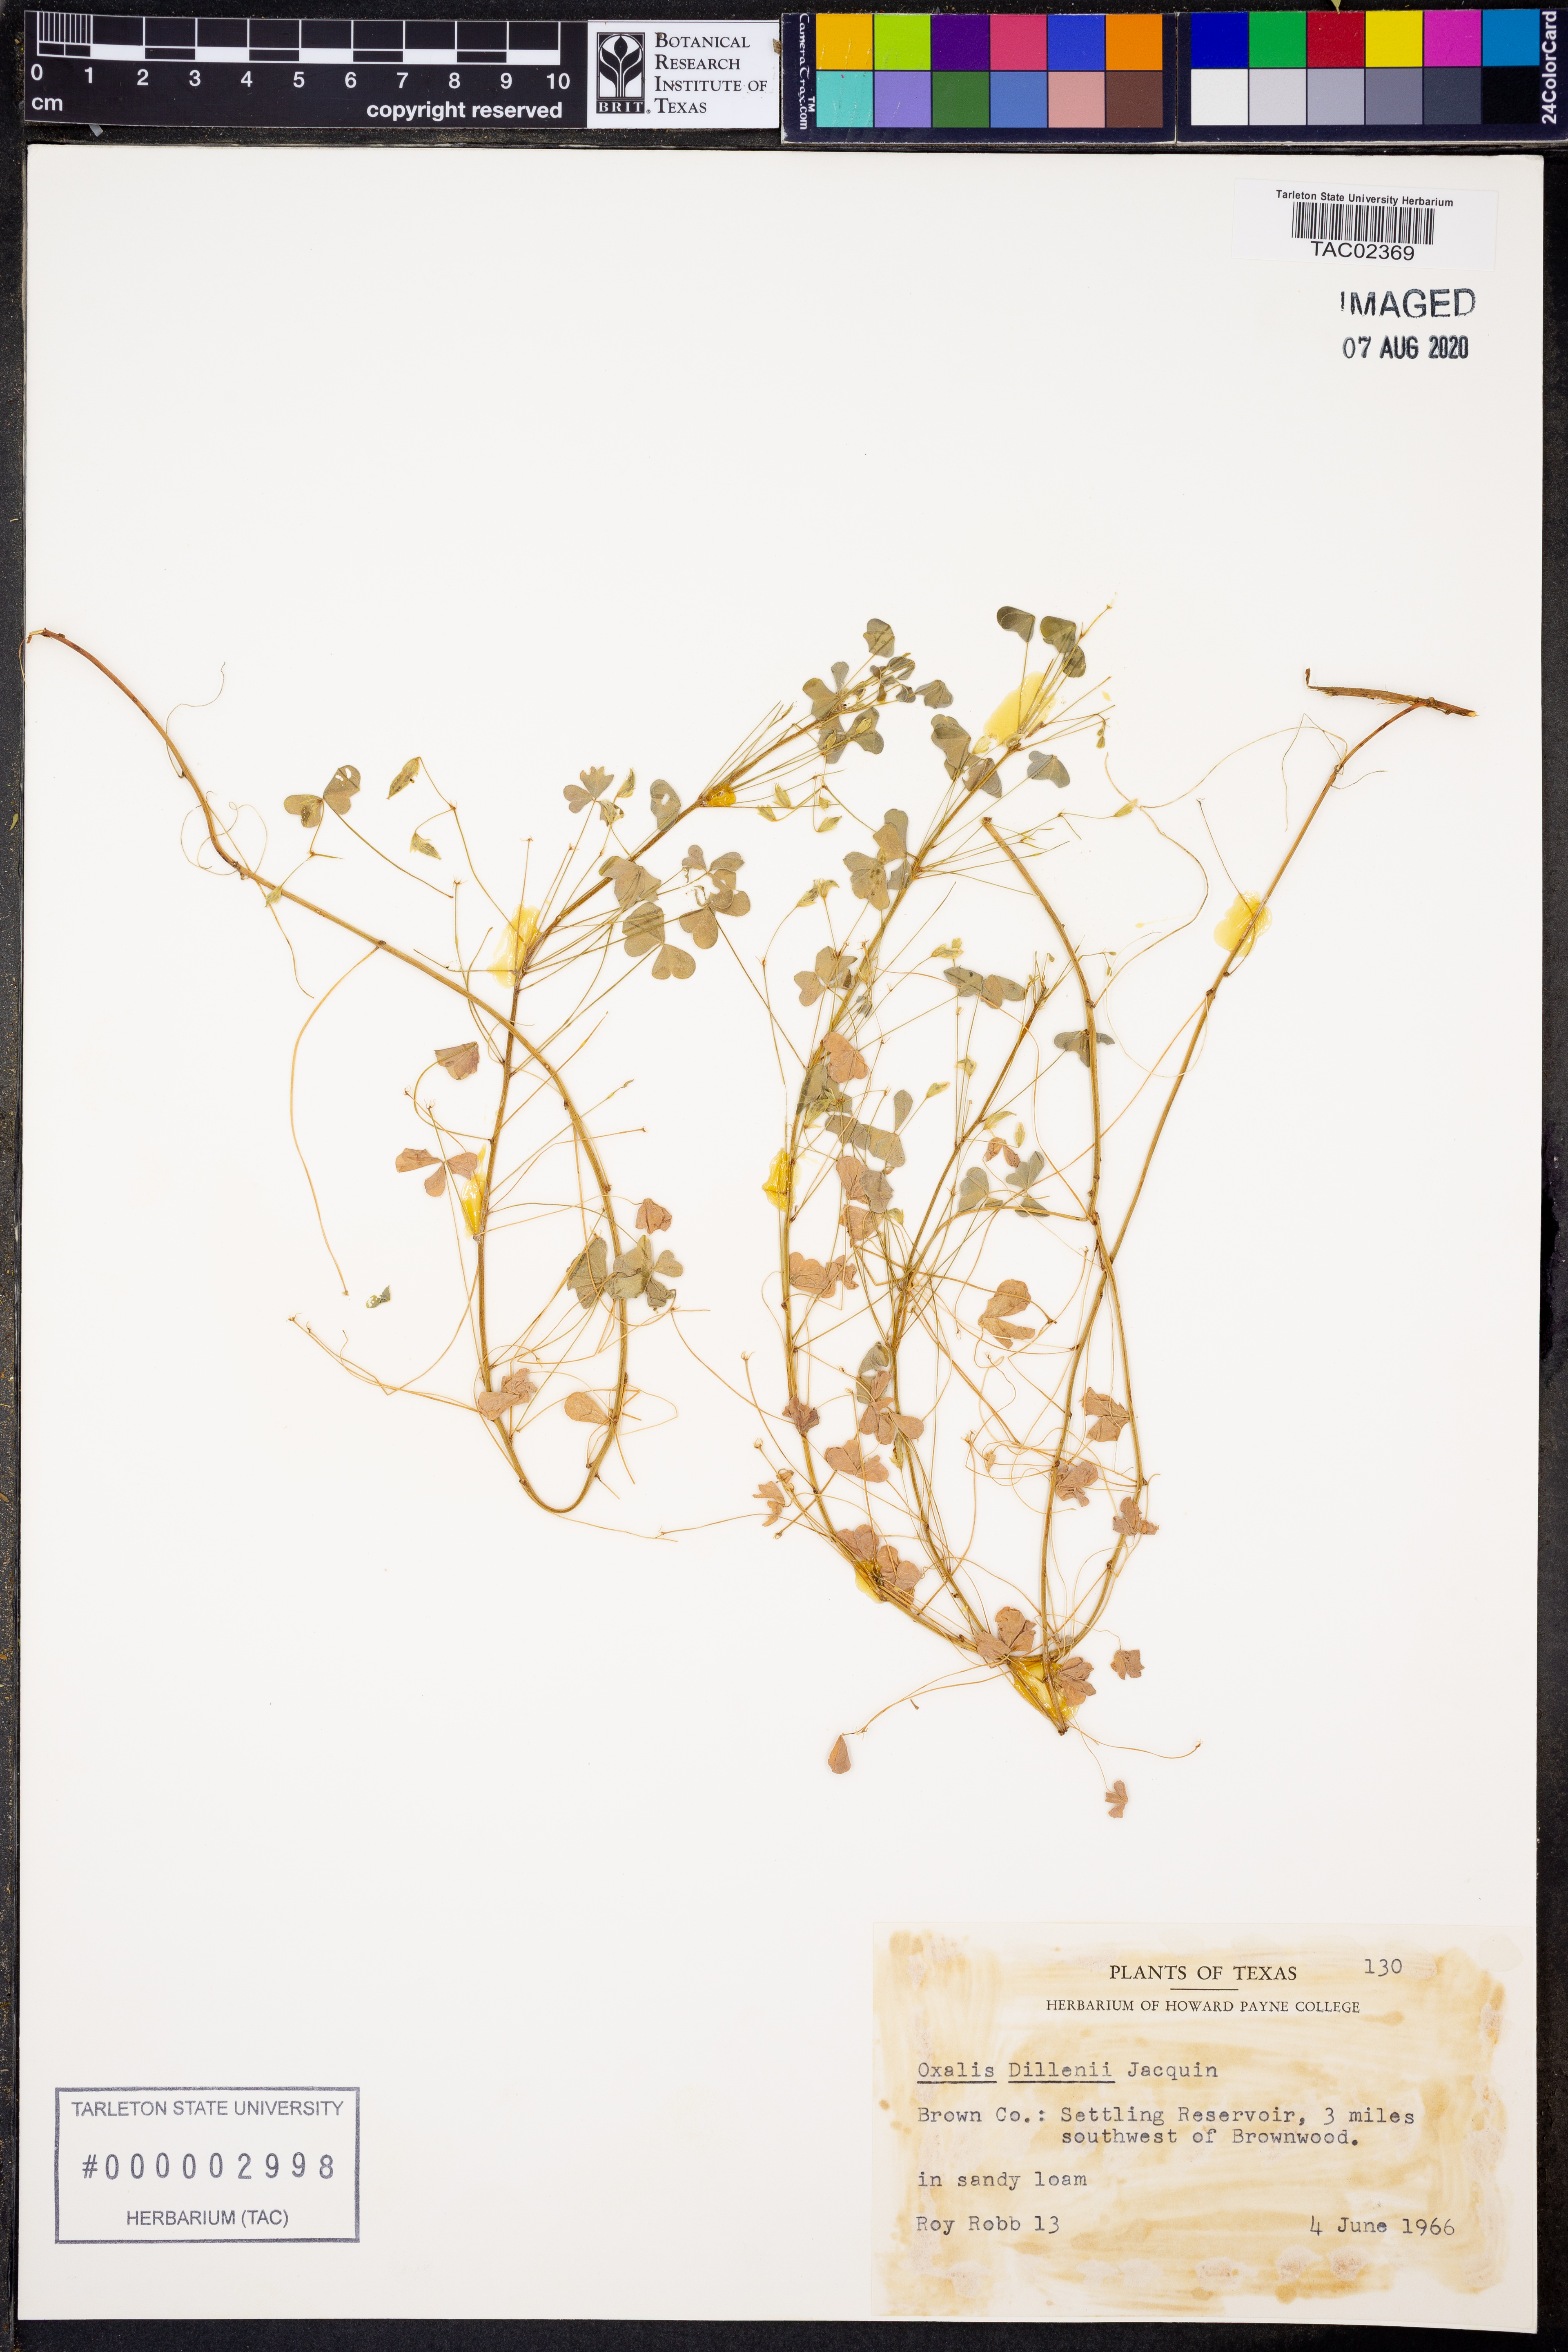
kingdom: Plantae
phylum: Tracheophyta
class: Magnoliopsida
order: Oxalidales
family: Oxalidaceae
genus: Oxalis
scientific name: Oxalis dillenii
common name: Sussex yellow-sorrel
